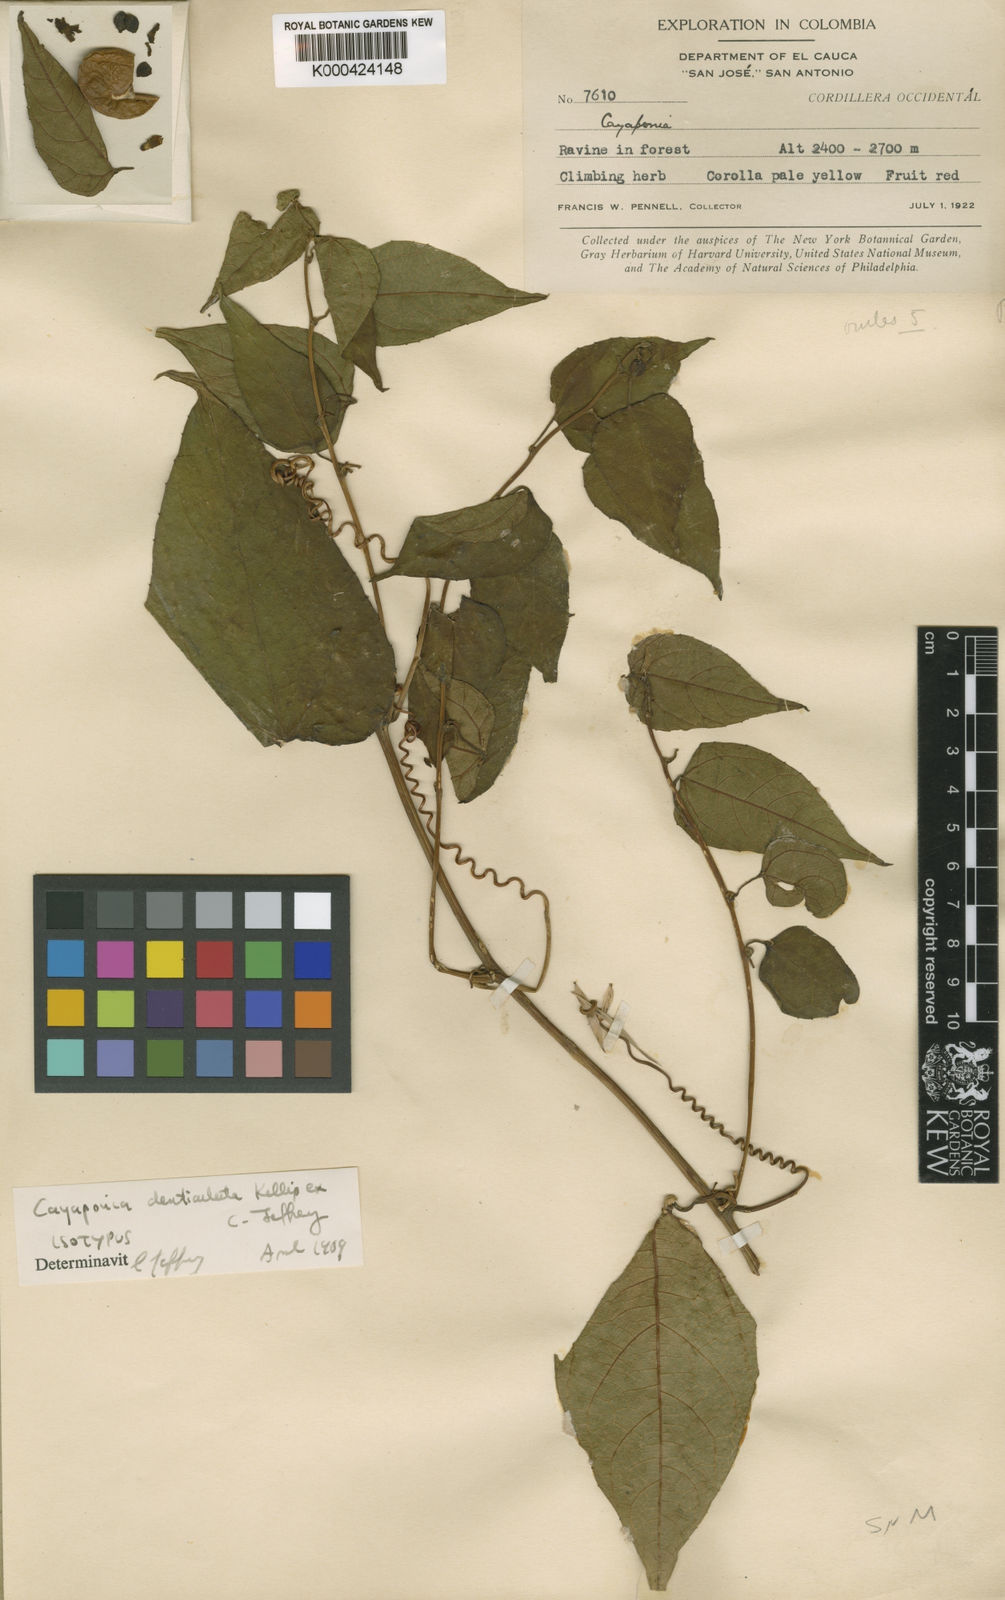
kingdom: Plantae
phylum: Tracheophyta
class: Magnoliopsida
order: Cucurbitales
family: Cucurbitaceae
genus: Cayaponia
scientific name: Cayaponia denticulata
